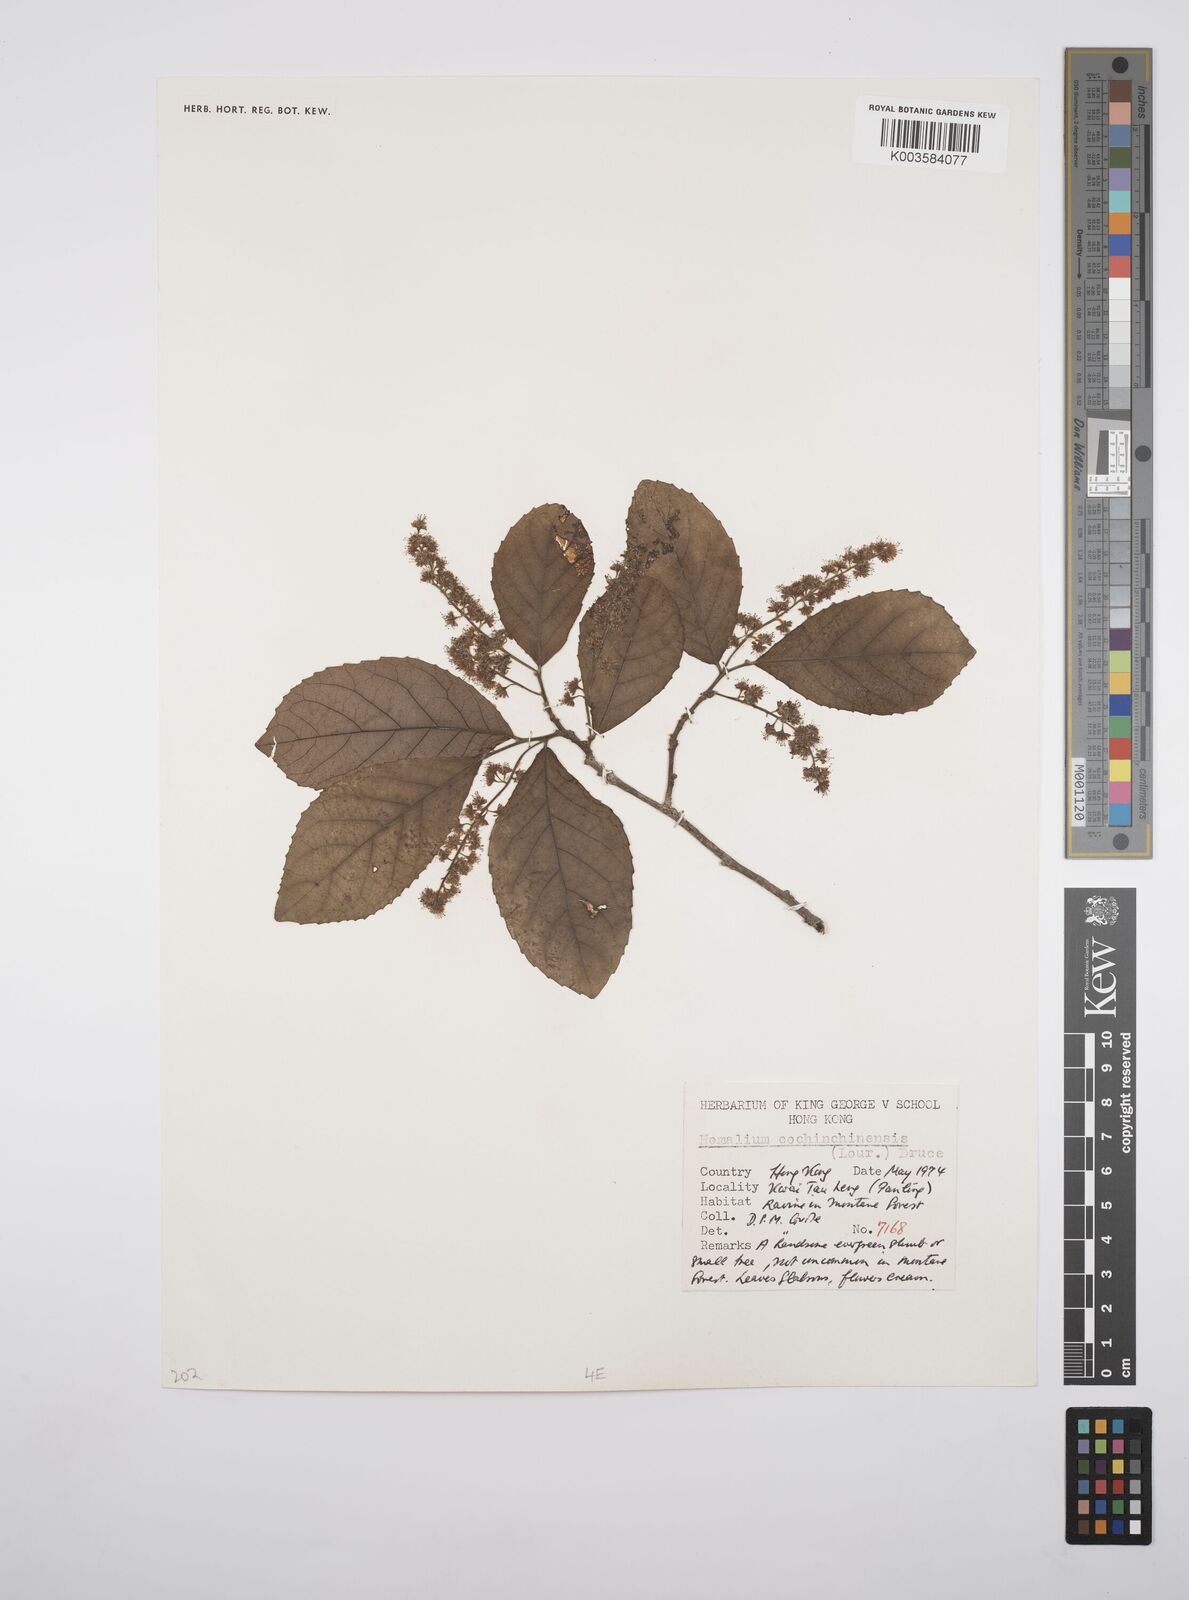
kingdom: Plantae
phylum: Tracheophyta
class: Magnoliopsida
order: Malpighiales
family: Salicaceae
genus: Homalium
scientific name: Homalium cochinchinensis
